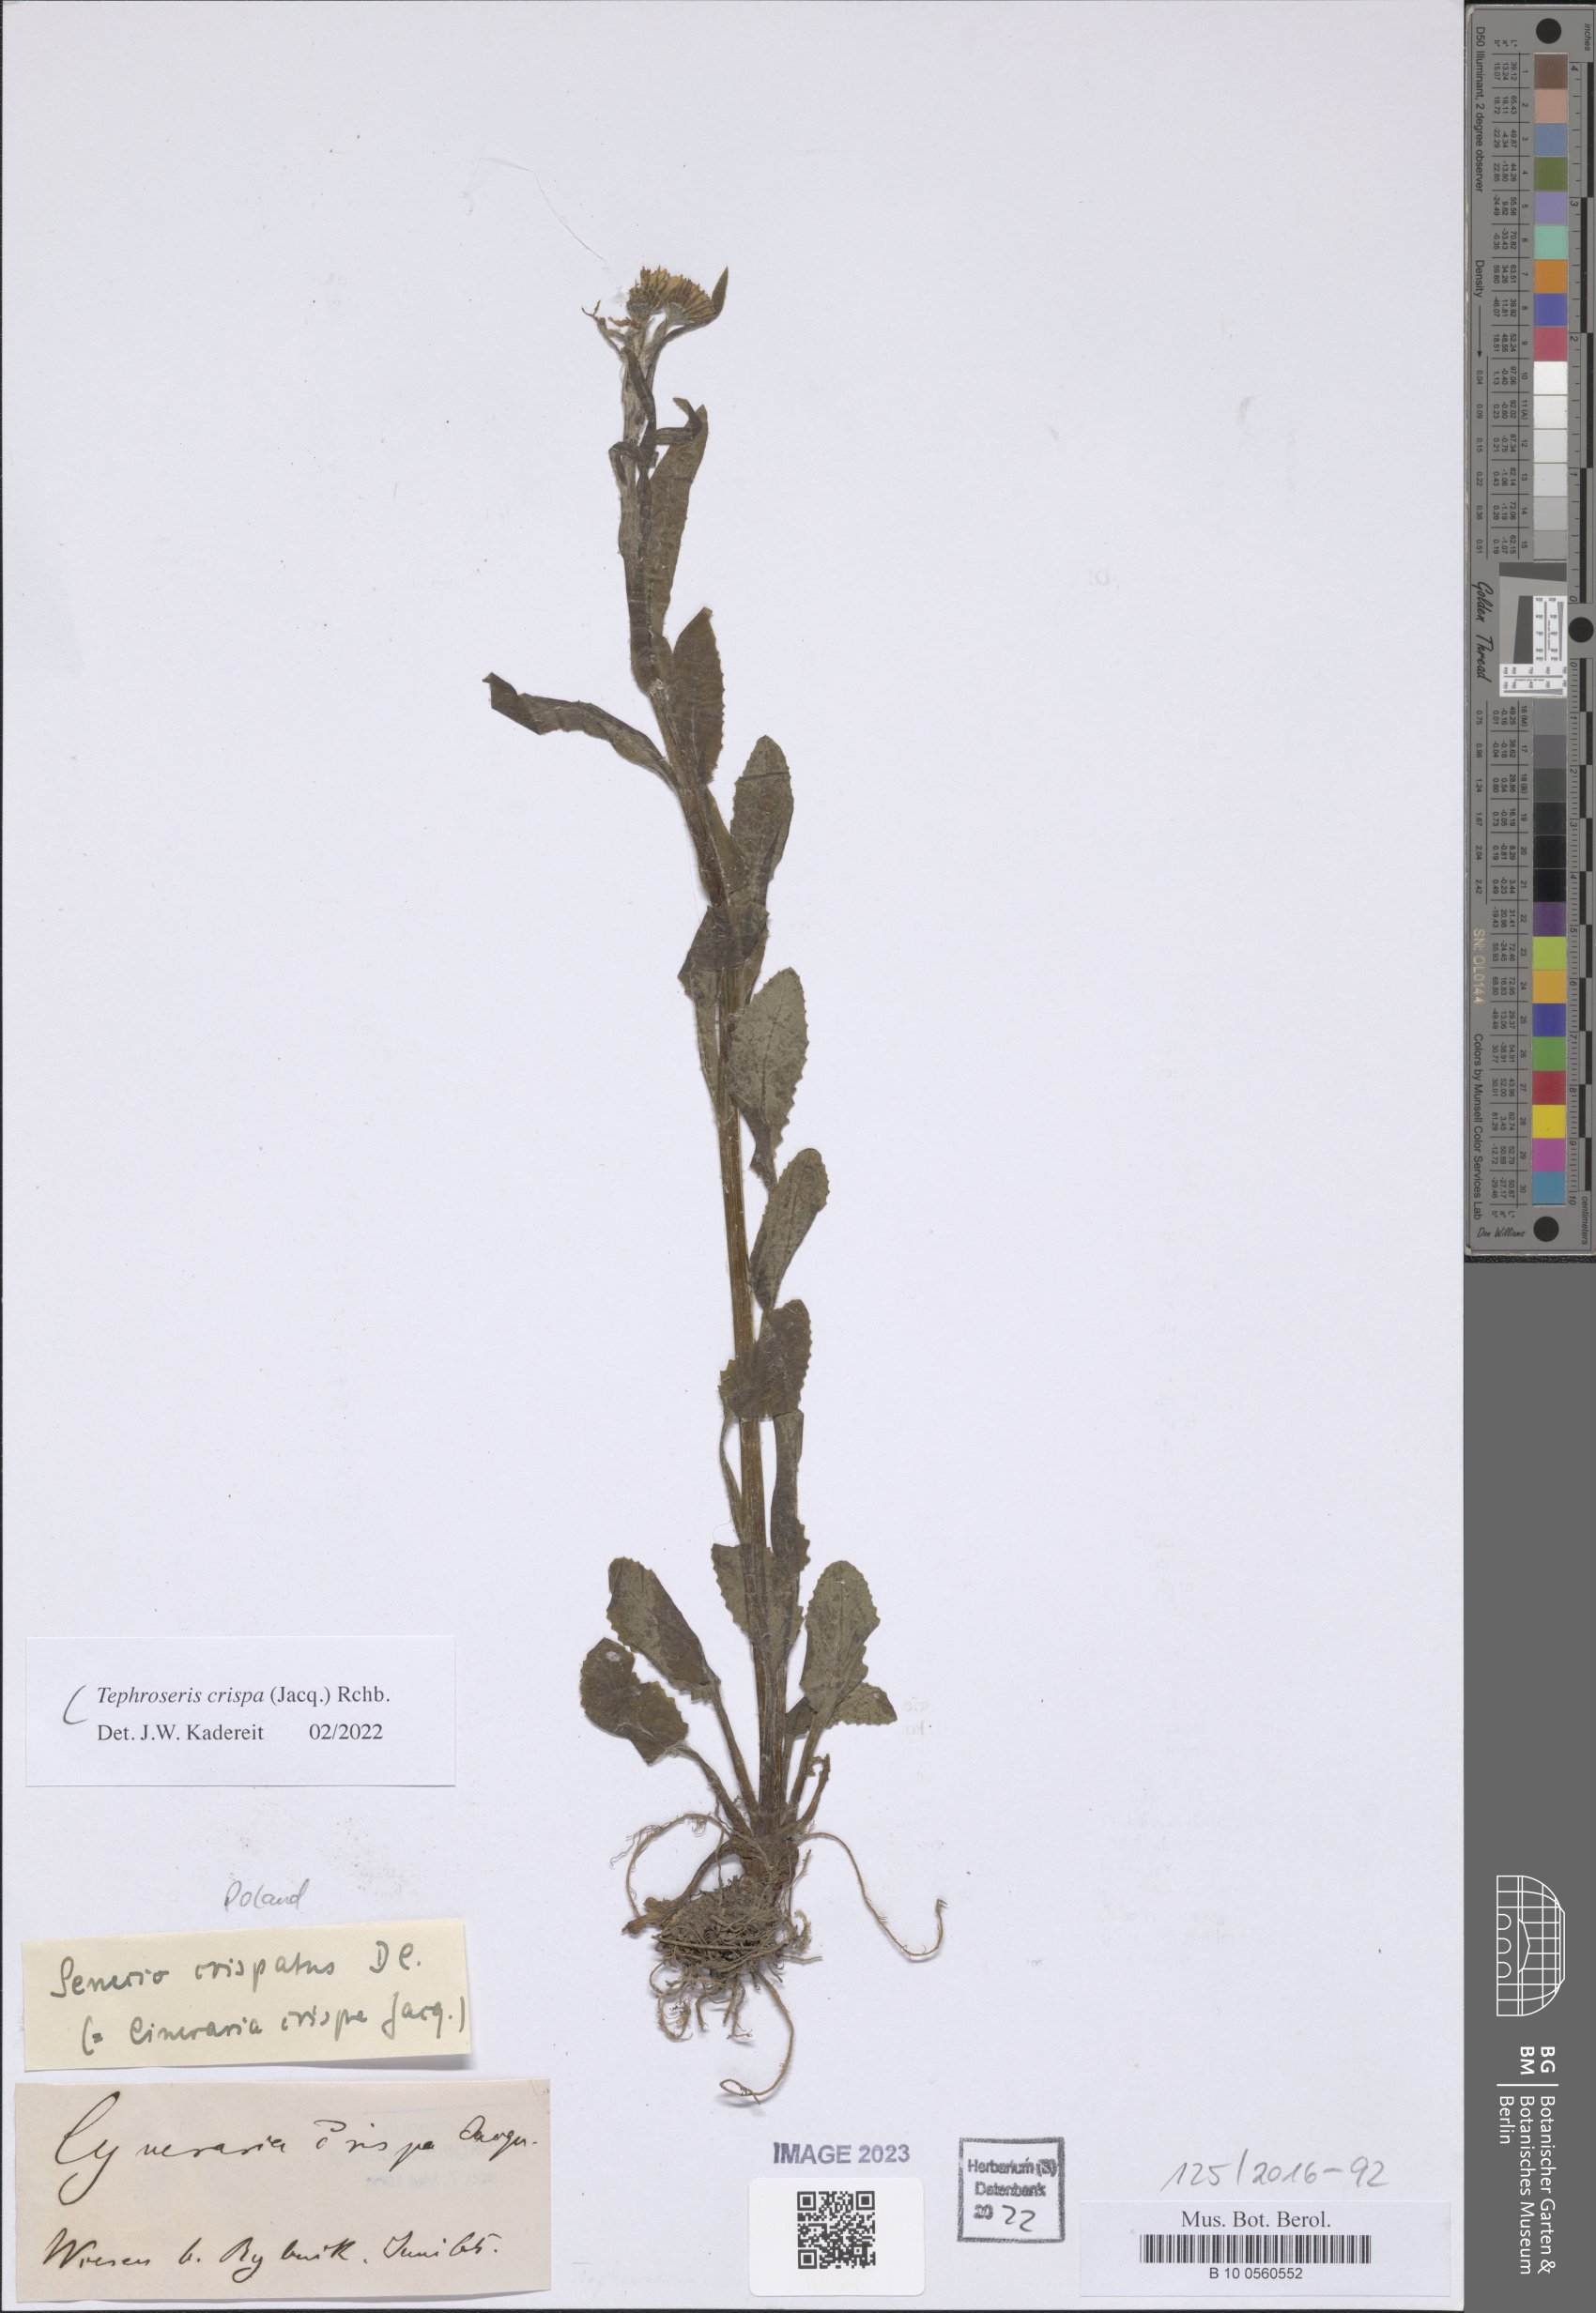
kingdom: Plantae
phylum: Tracheophyta
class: Magnoliopsida
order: Asterales
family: Asteraceae
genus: Tephroseris
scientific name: Tephroseris crispa
